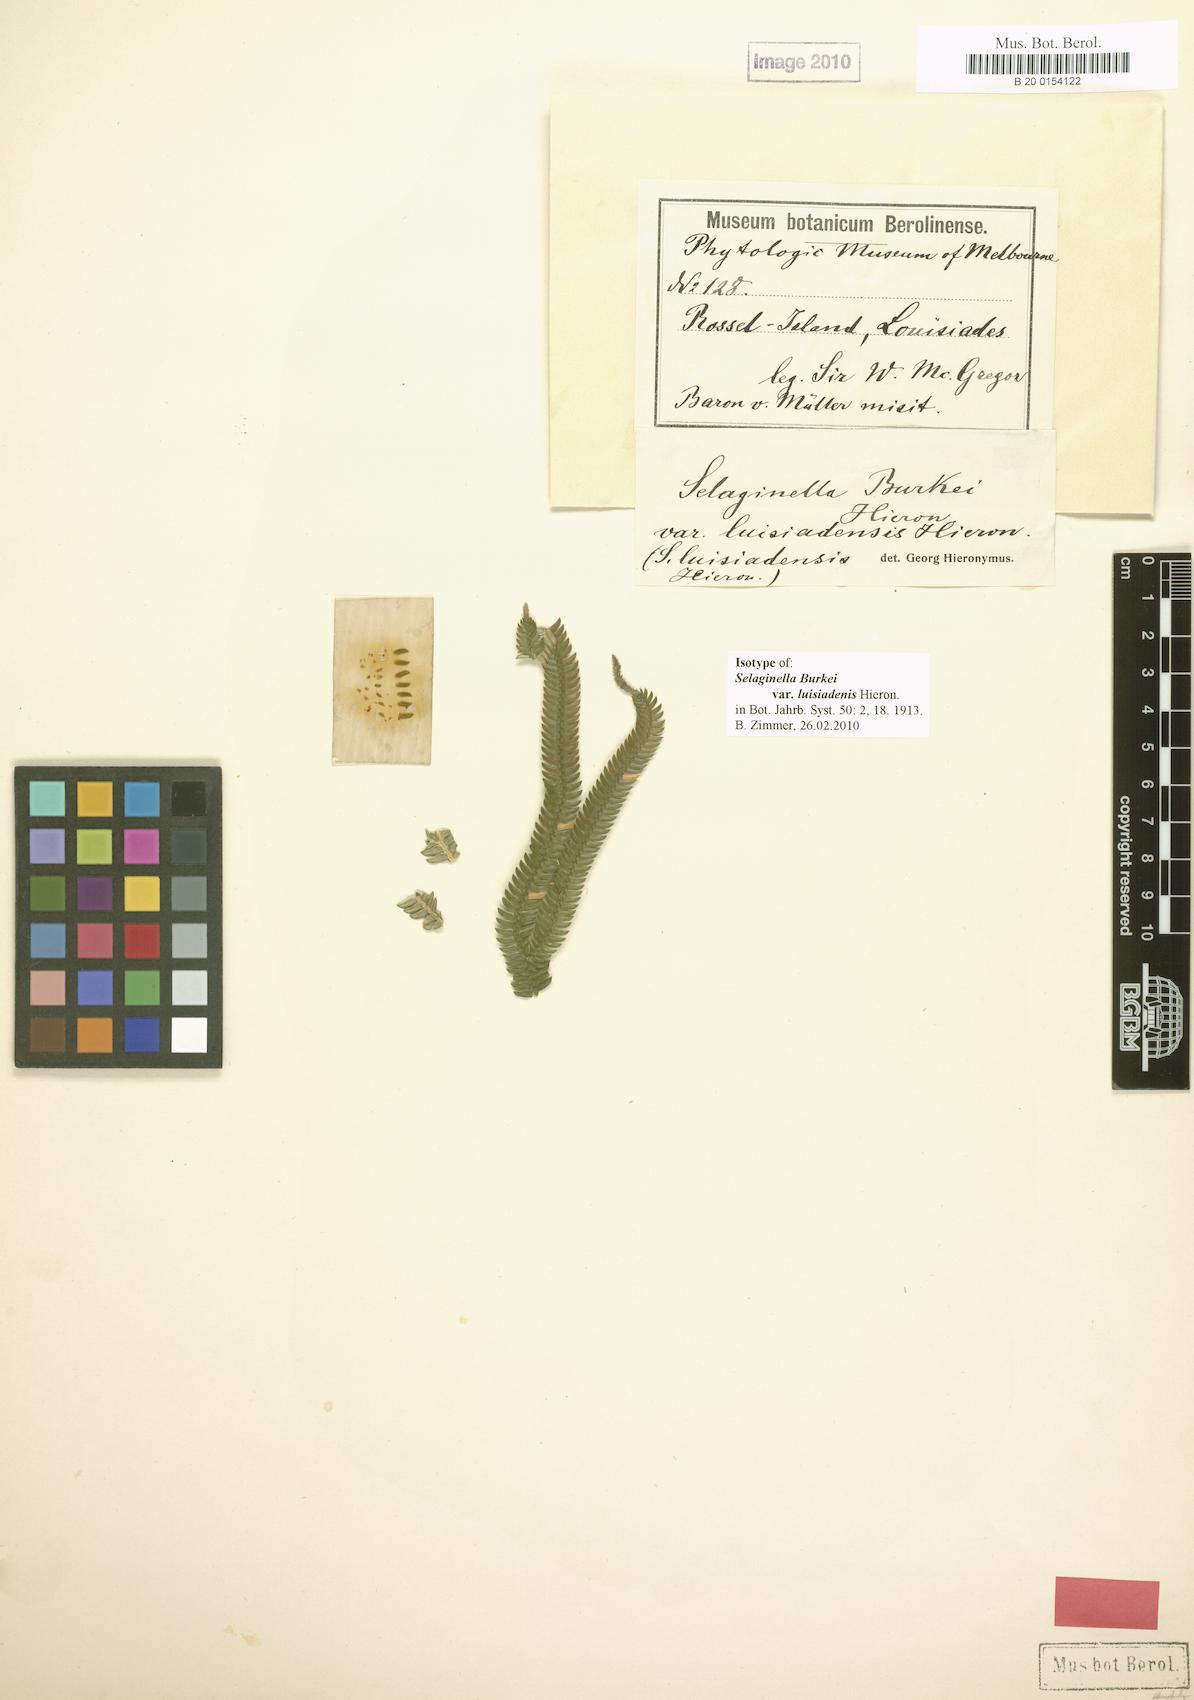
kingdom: Plantae
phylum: Tracheophyta
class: Lycopodiopsida
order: Selaginellales
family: Selaginellaceae
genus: Selaginella
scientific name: Selaginella burkei
